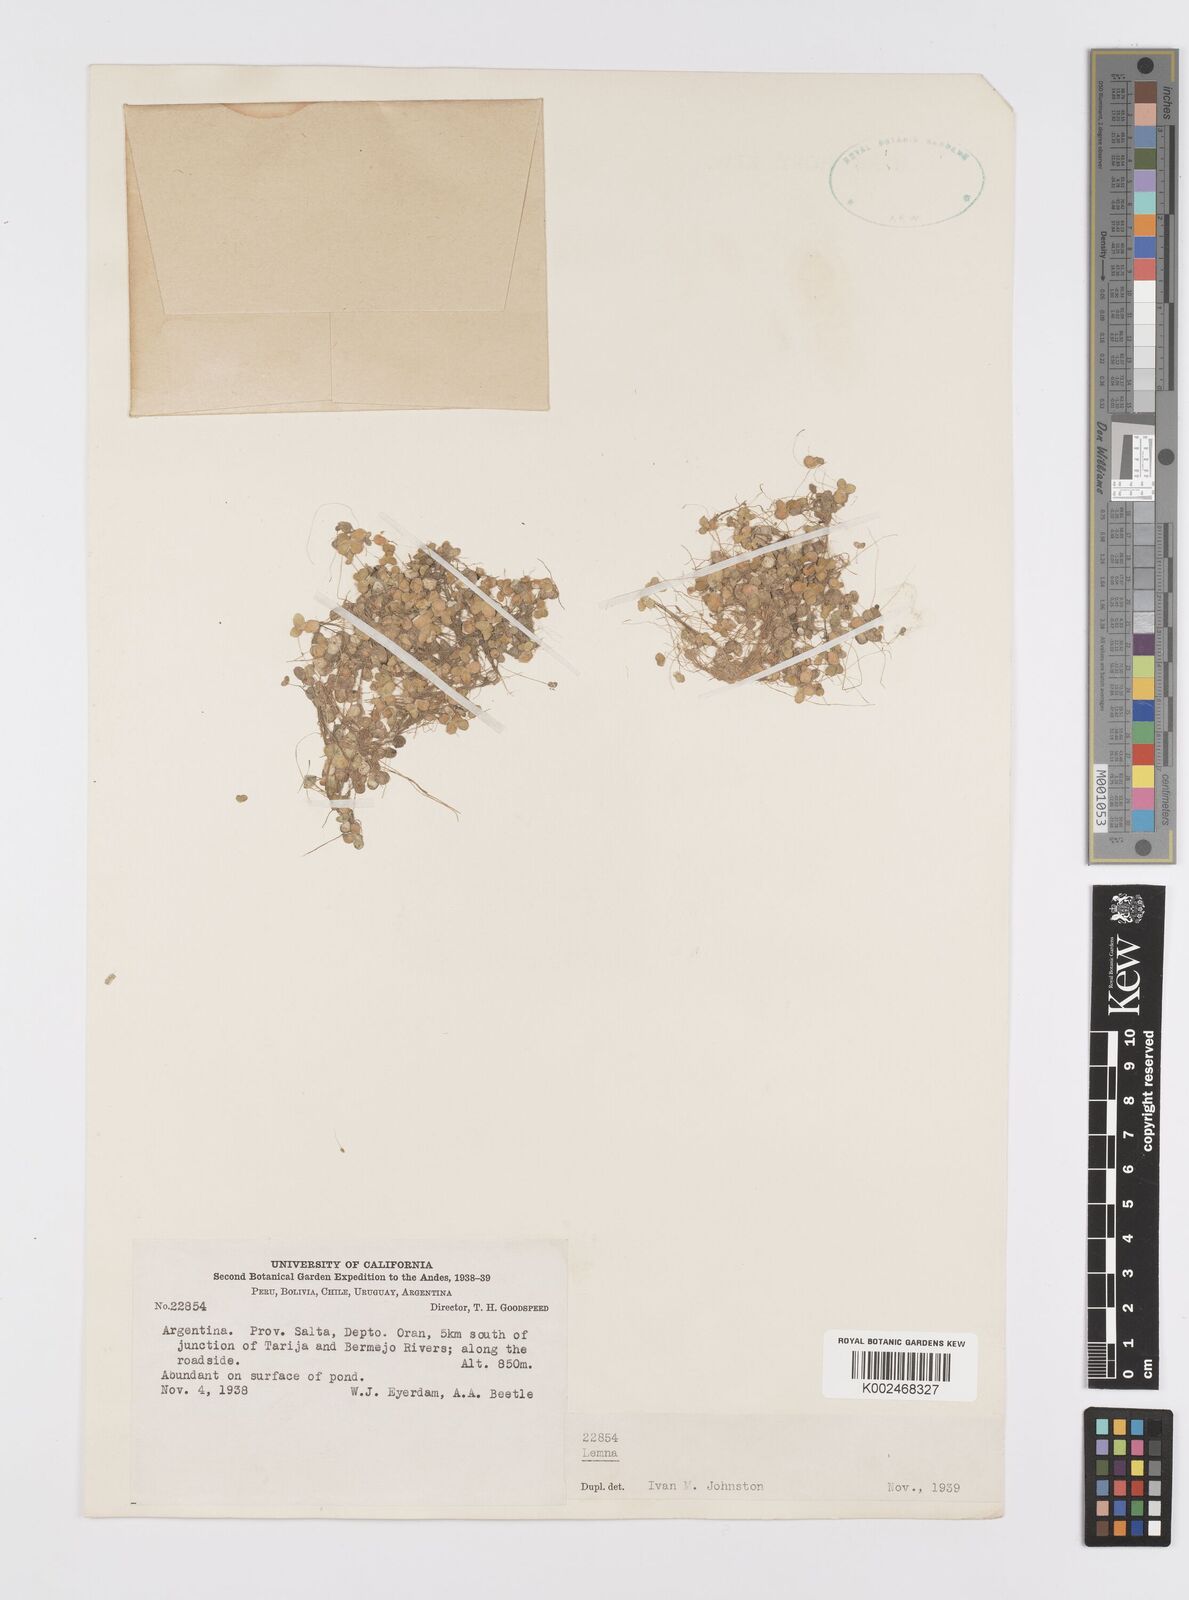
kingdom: Plantae
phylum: Tracheophyta
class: Liliopsida
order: Alismatales
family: Araceae
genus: Lemna
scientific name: Lemna
